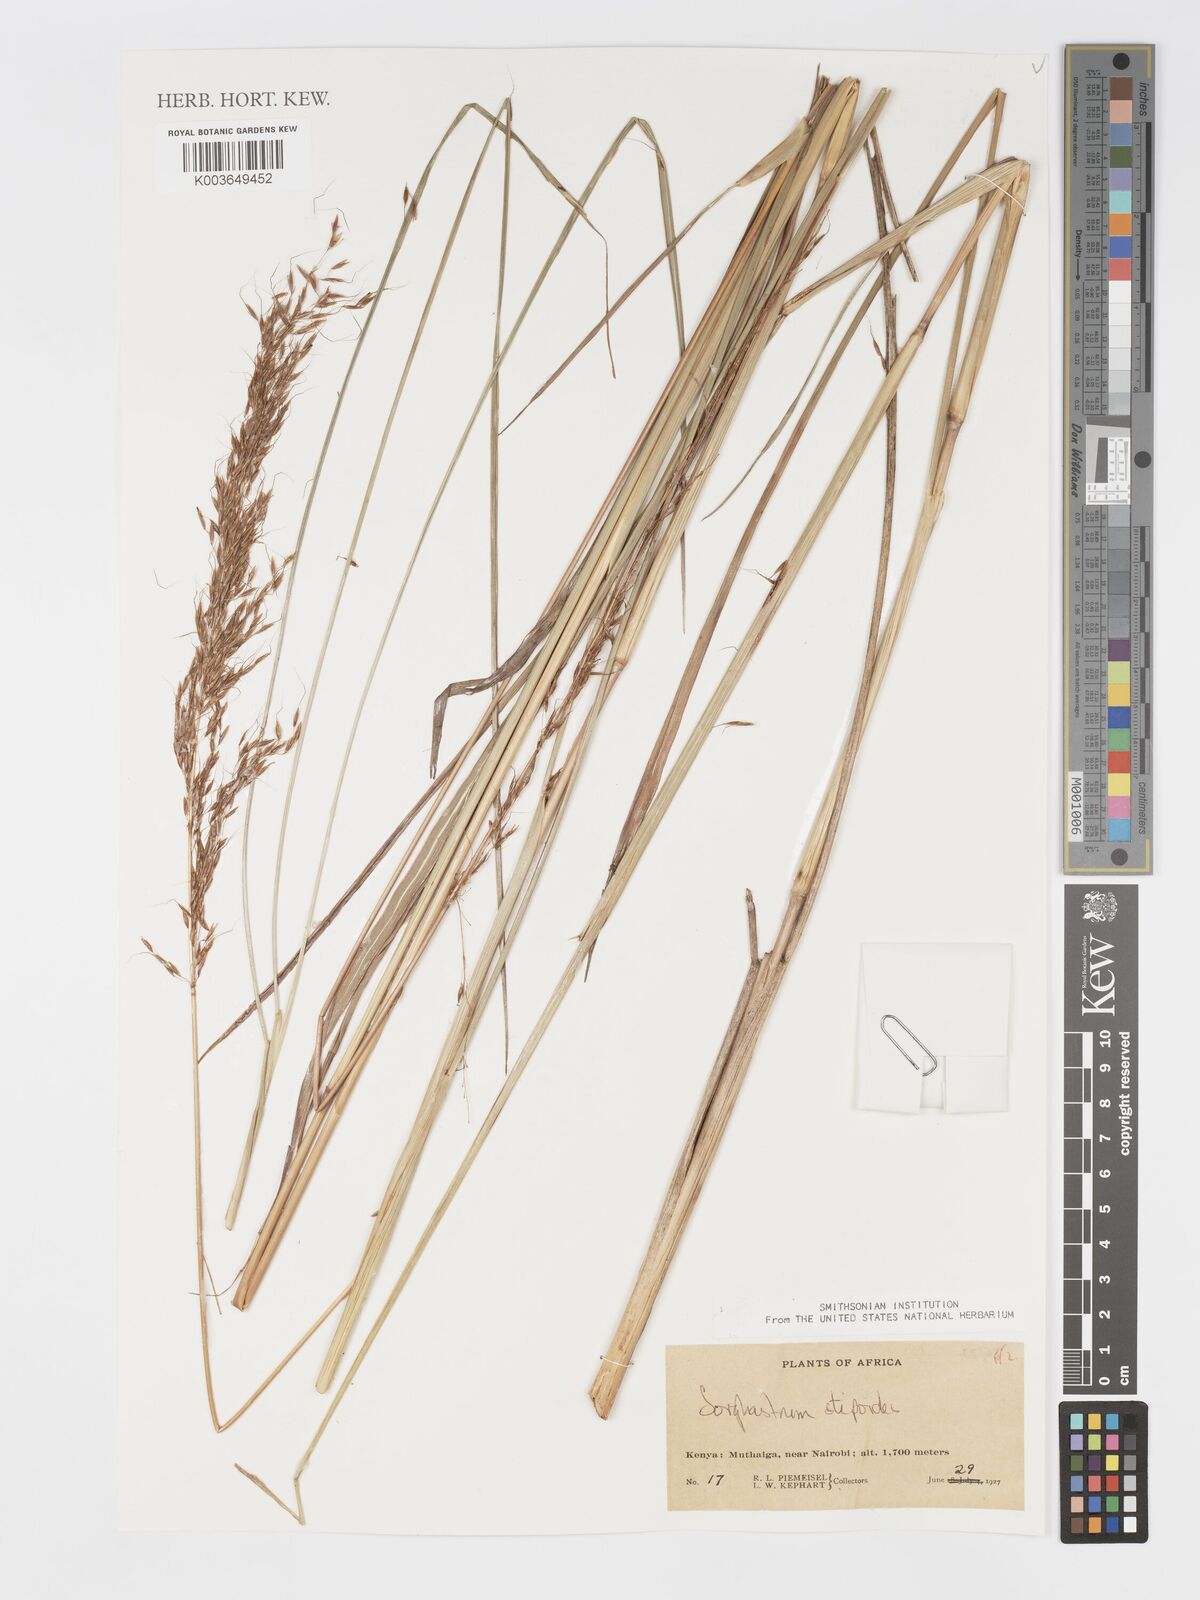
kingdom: Plantae
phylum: Tracheophyta
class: Liliopsida
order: Poales
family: Poaceae
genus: Sorghastrum
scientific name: Sorghastrum stipoides
